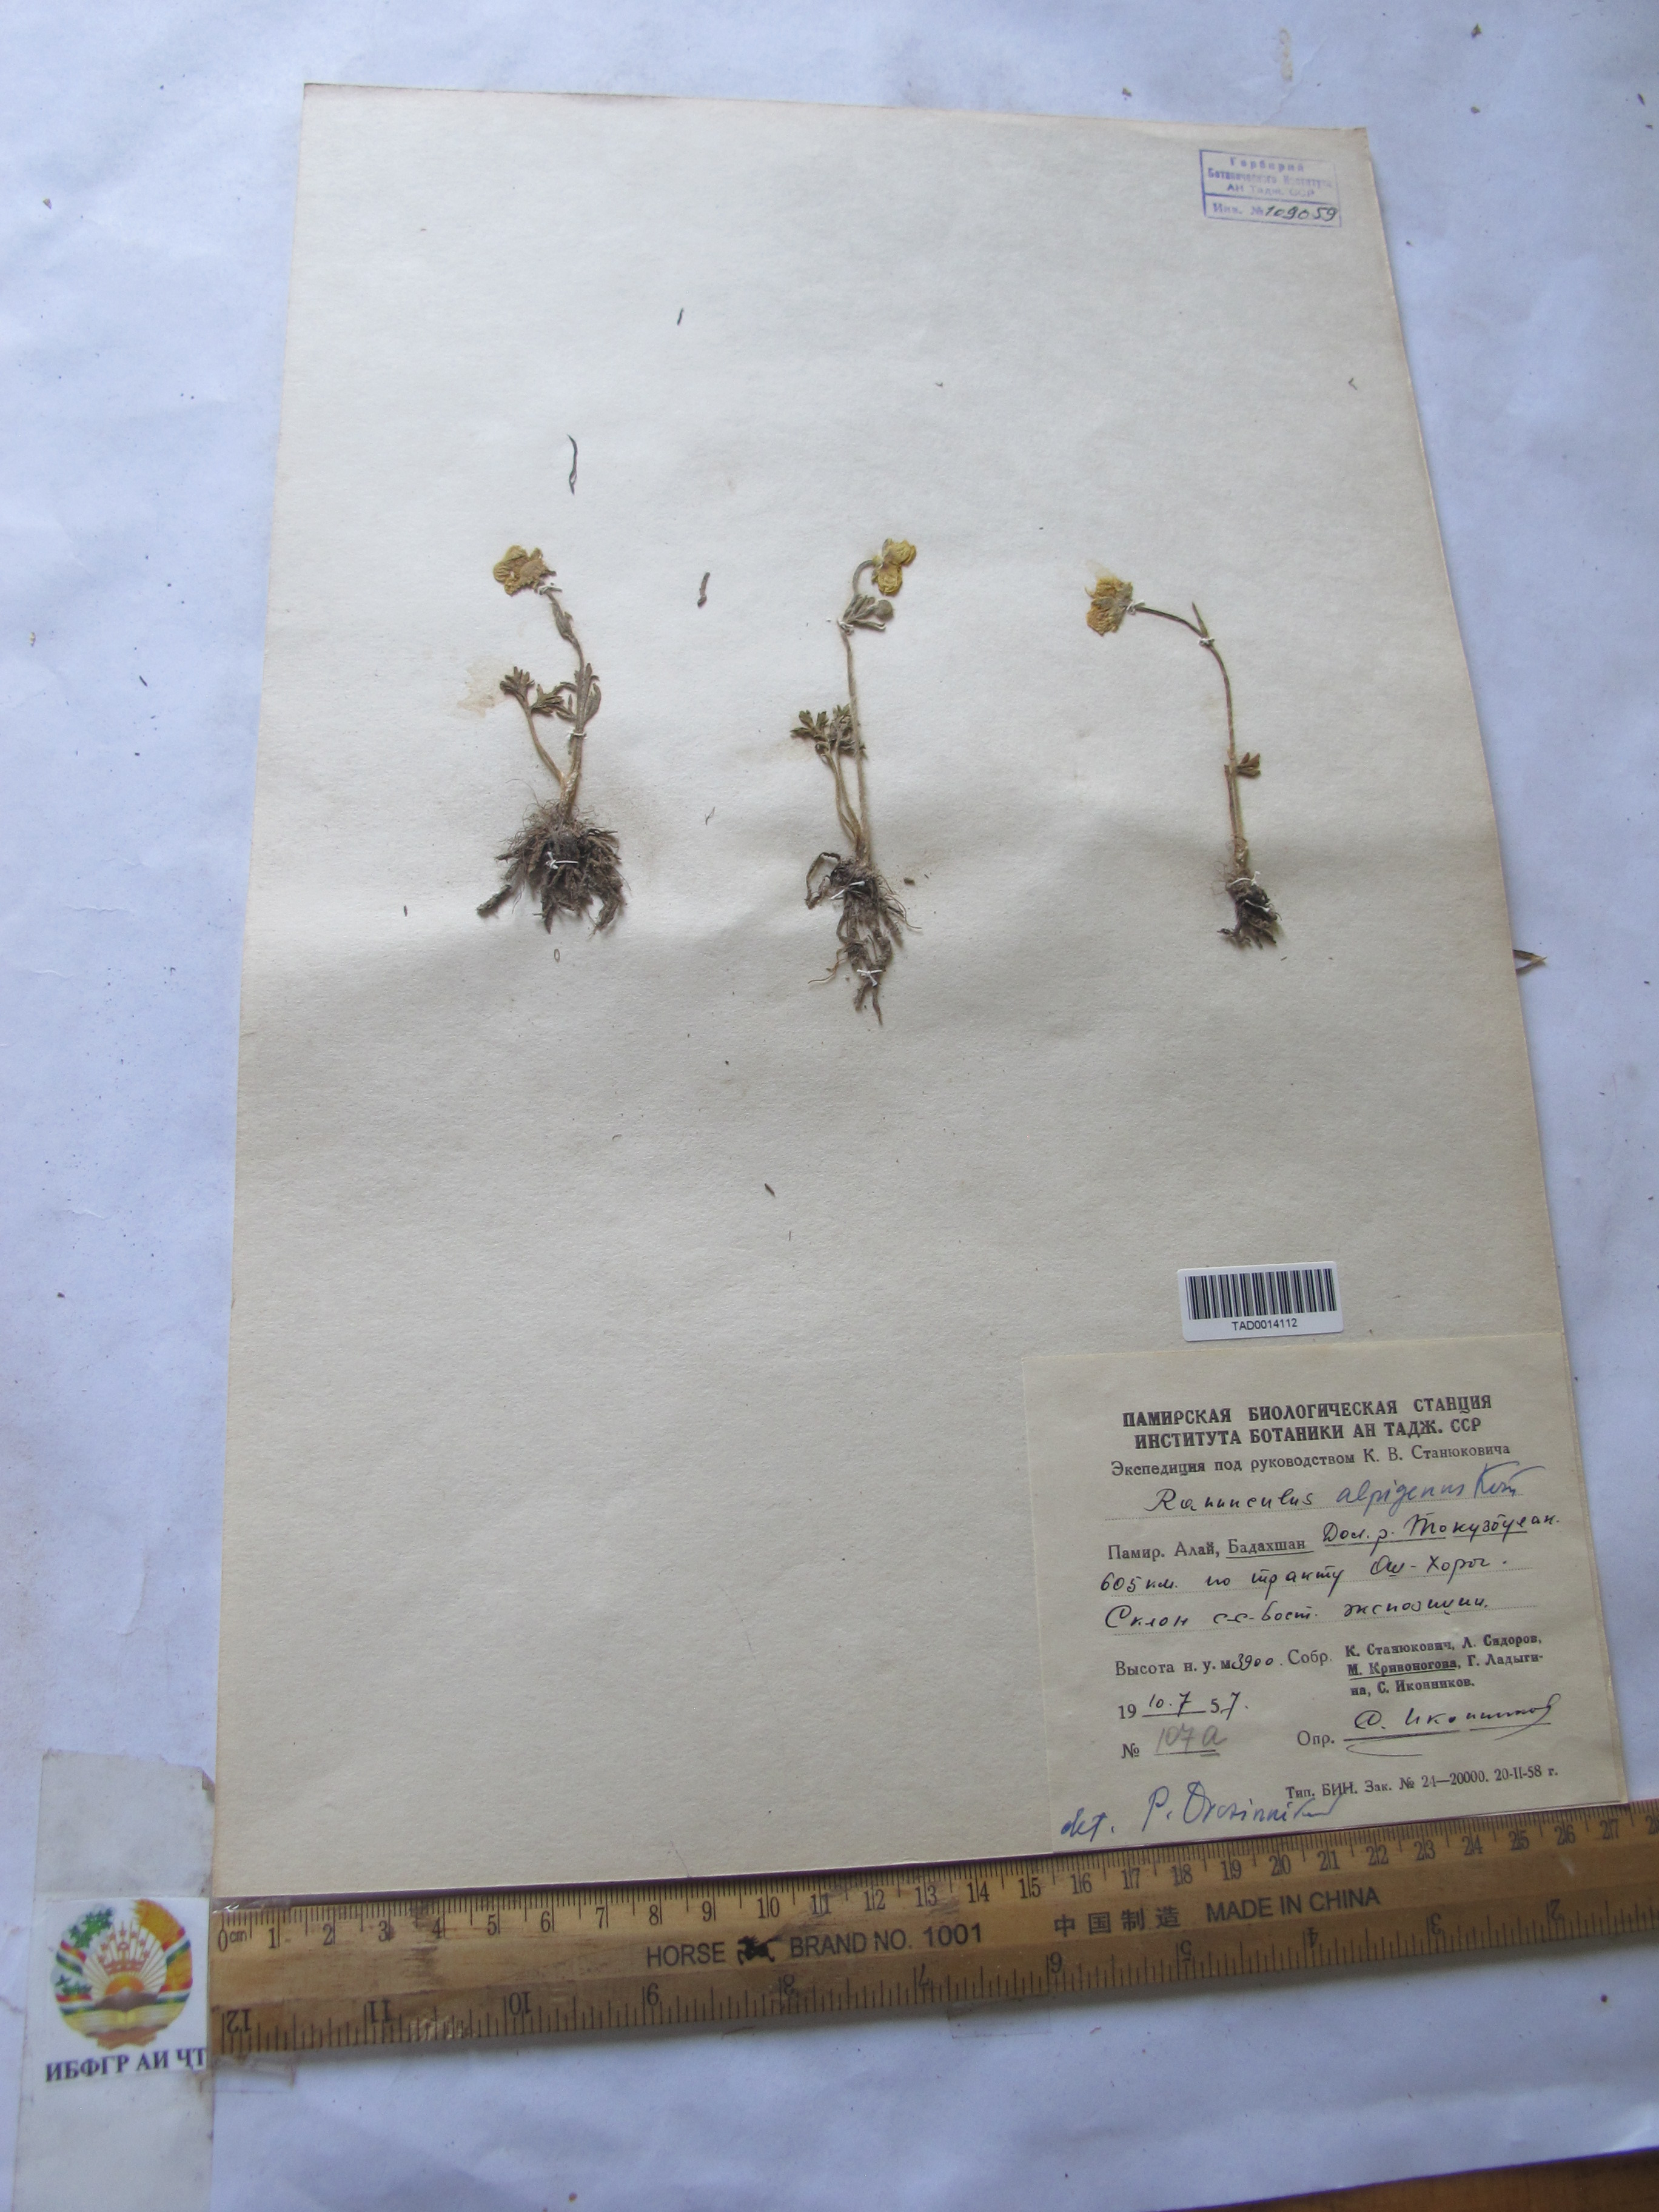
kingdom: Plantae
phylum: Tracheophyta
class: Magnoliopsida
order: Ranunculales
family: Ranunculaceae
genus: Ranunculus
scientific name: Ranunculus alpigenus
